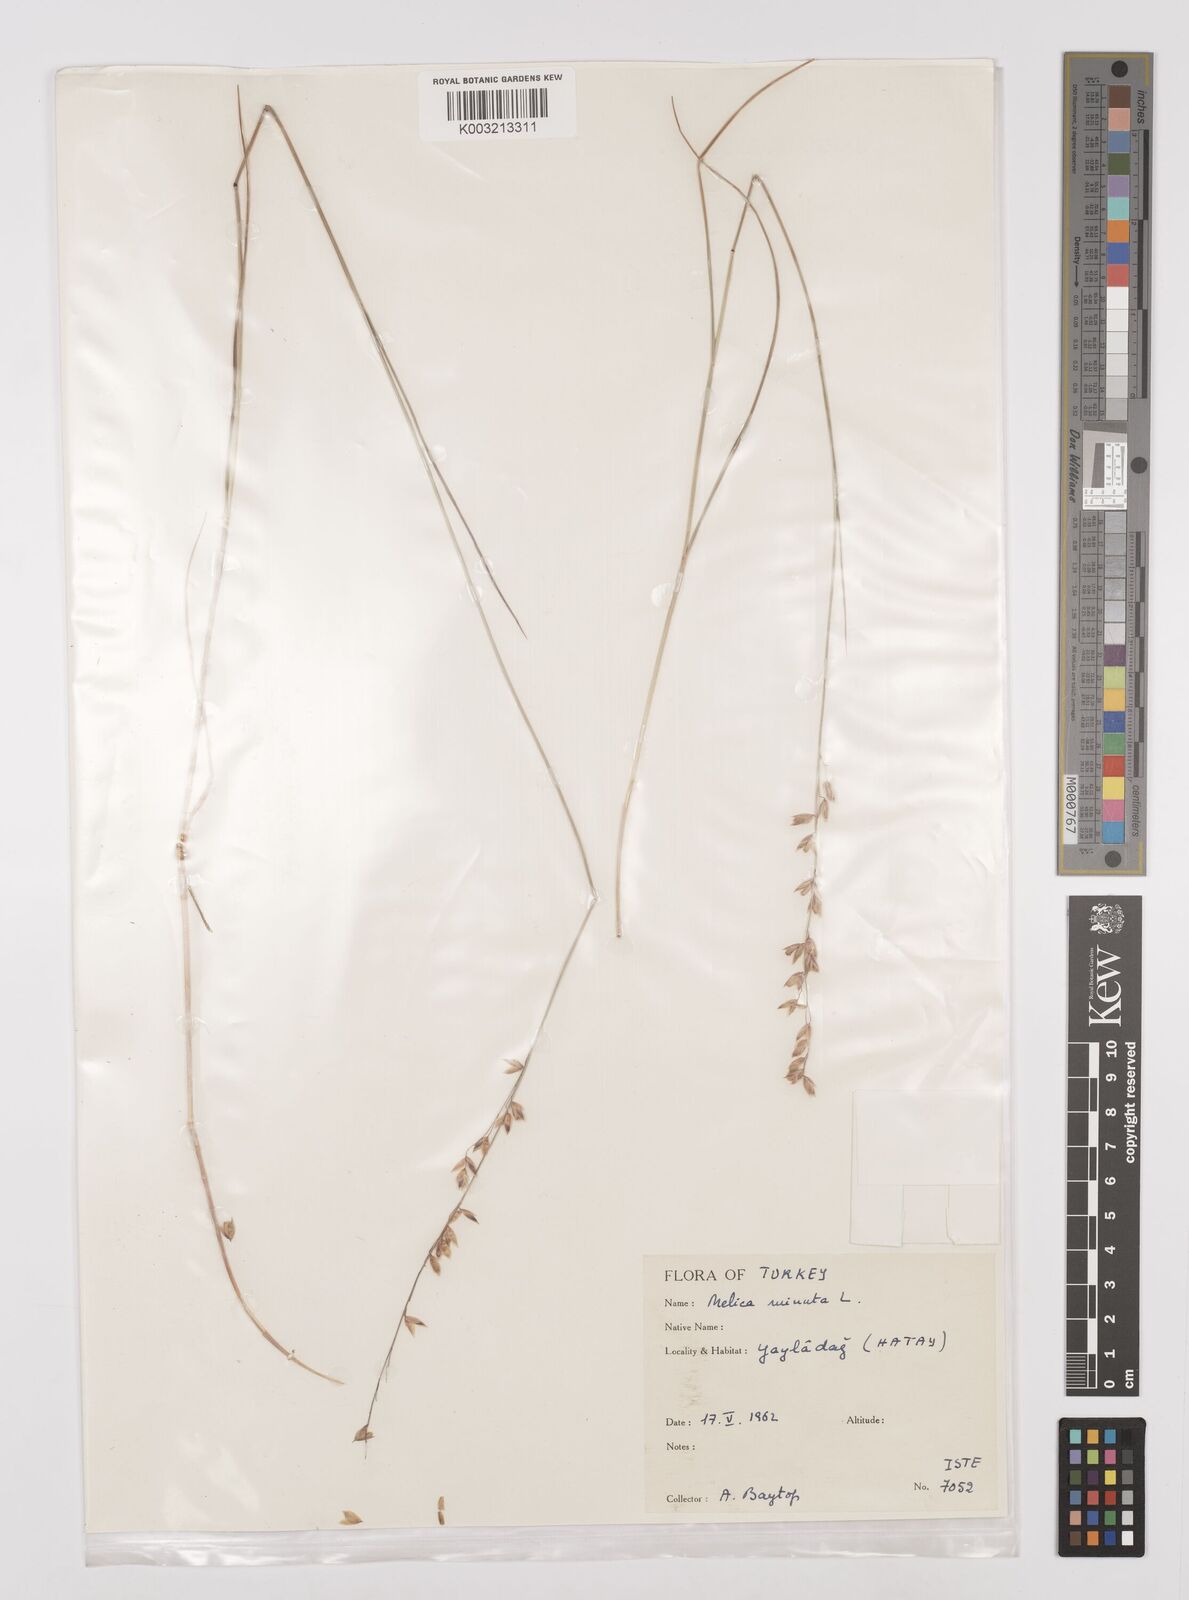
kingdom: Plantae
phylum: Tracheophyta
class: Liliopsida
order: Poales
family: Poaceae
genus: Melica
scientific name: Melica minuta
